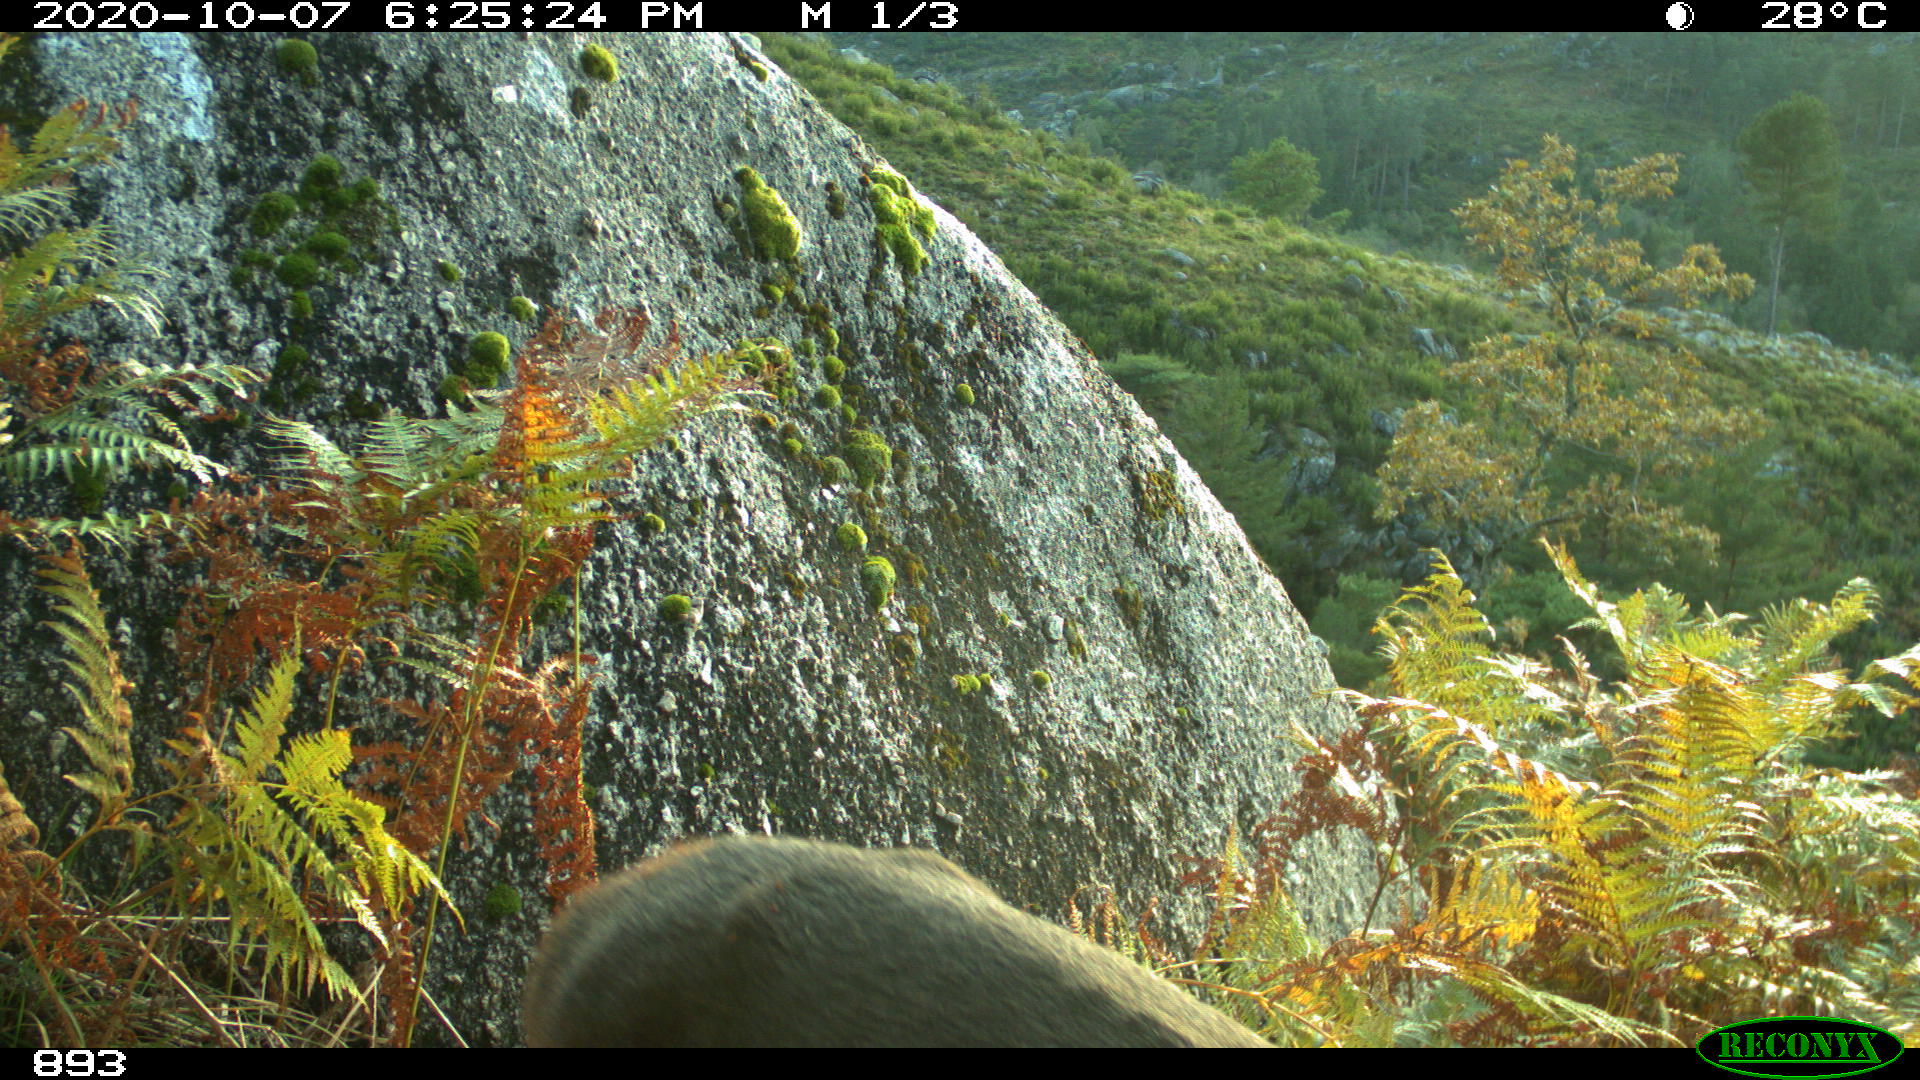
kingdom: Animalia
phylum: Chordata
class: Mammalia
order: Artiodactyla
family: Cervidae
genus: Capreolus
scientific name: Capreolus capreolus
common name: Western roe deer
